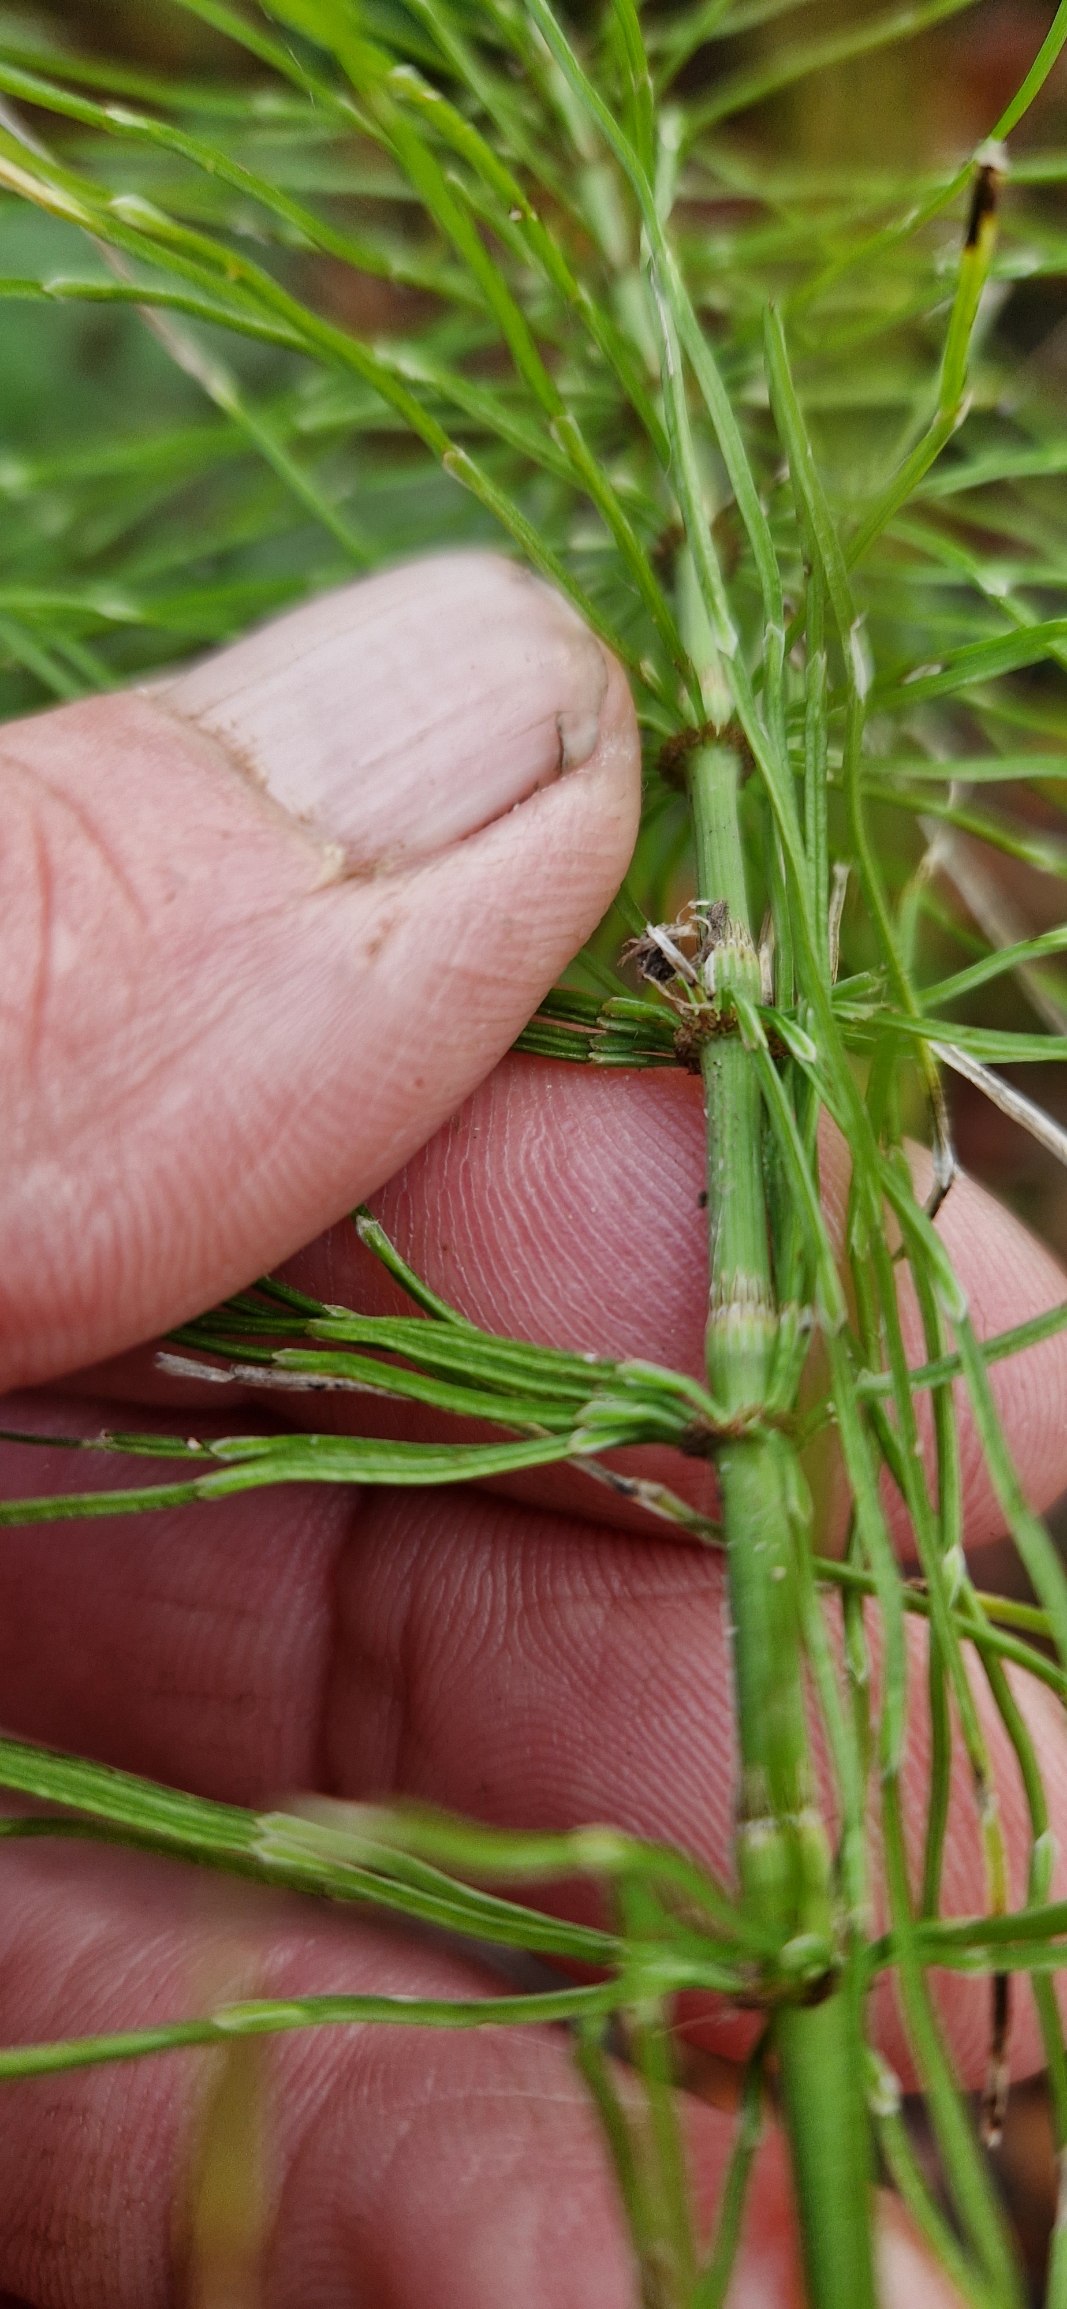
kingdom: Plantae
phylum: Tracheophyta
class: Polypodiopsida
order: Equisetales
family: Equisetaceae
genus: Equisetum
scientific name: Equisetum pratense
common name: Lund-padderok
